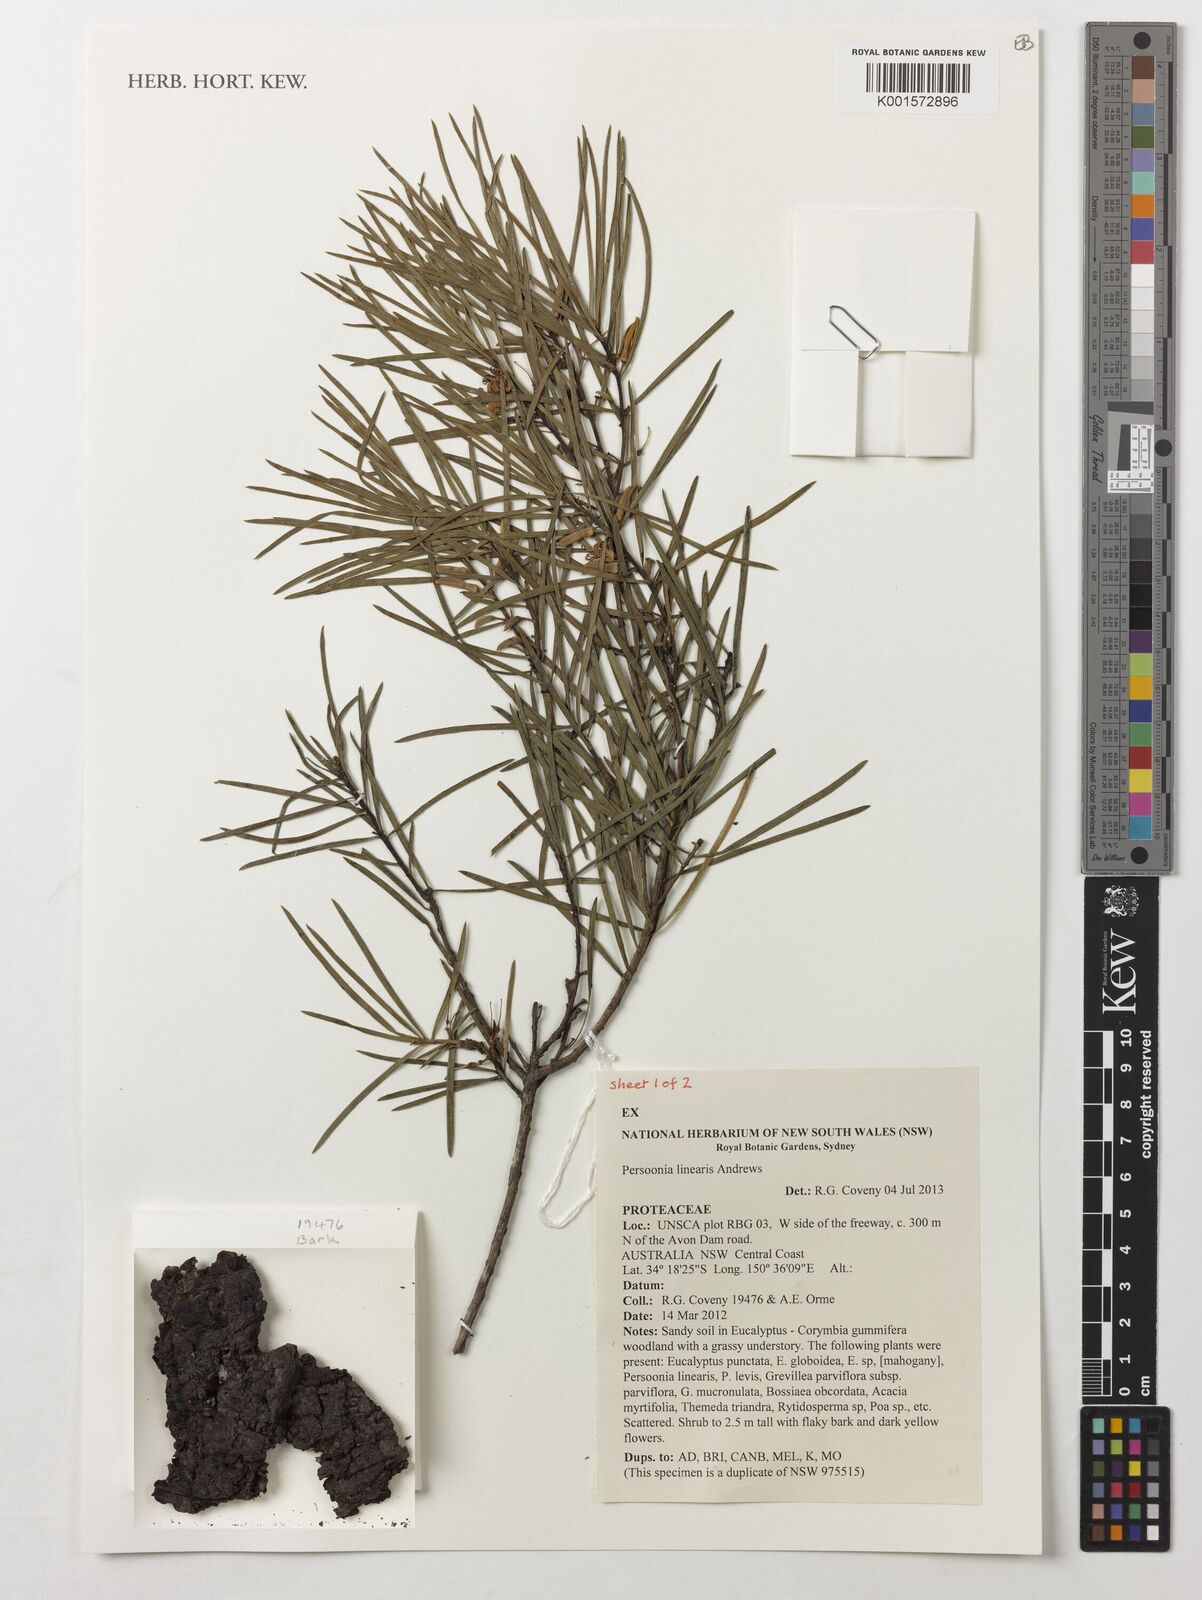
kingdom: Plantae
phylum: Tracheophyta
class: Magnoliopsida
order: Proteales
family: Proteaceae
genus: Persoonia
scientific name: Persoonia linearis
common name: Narrow-leaf geebung
